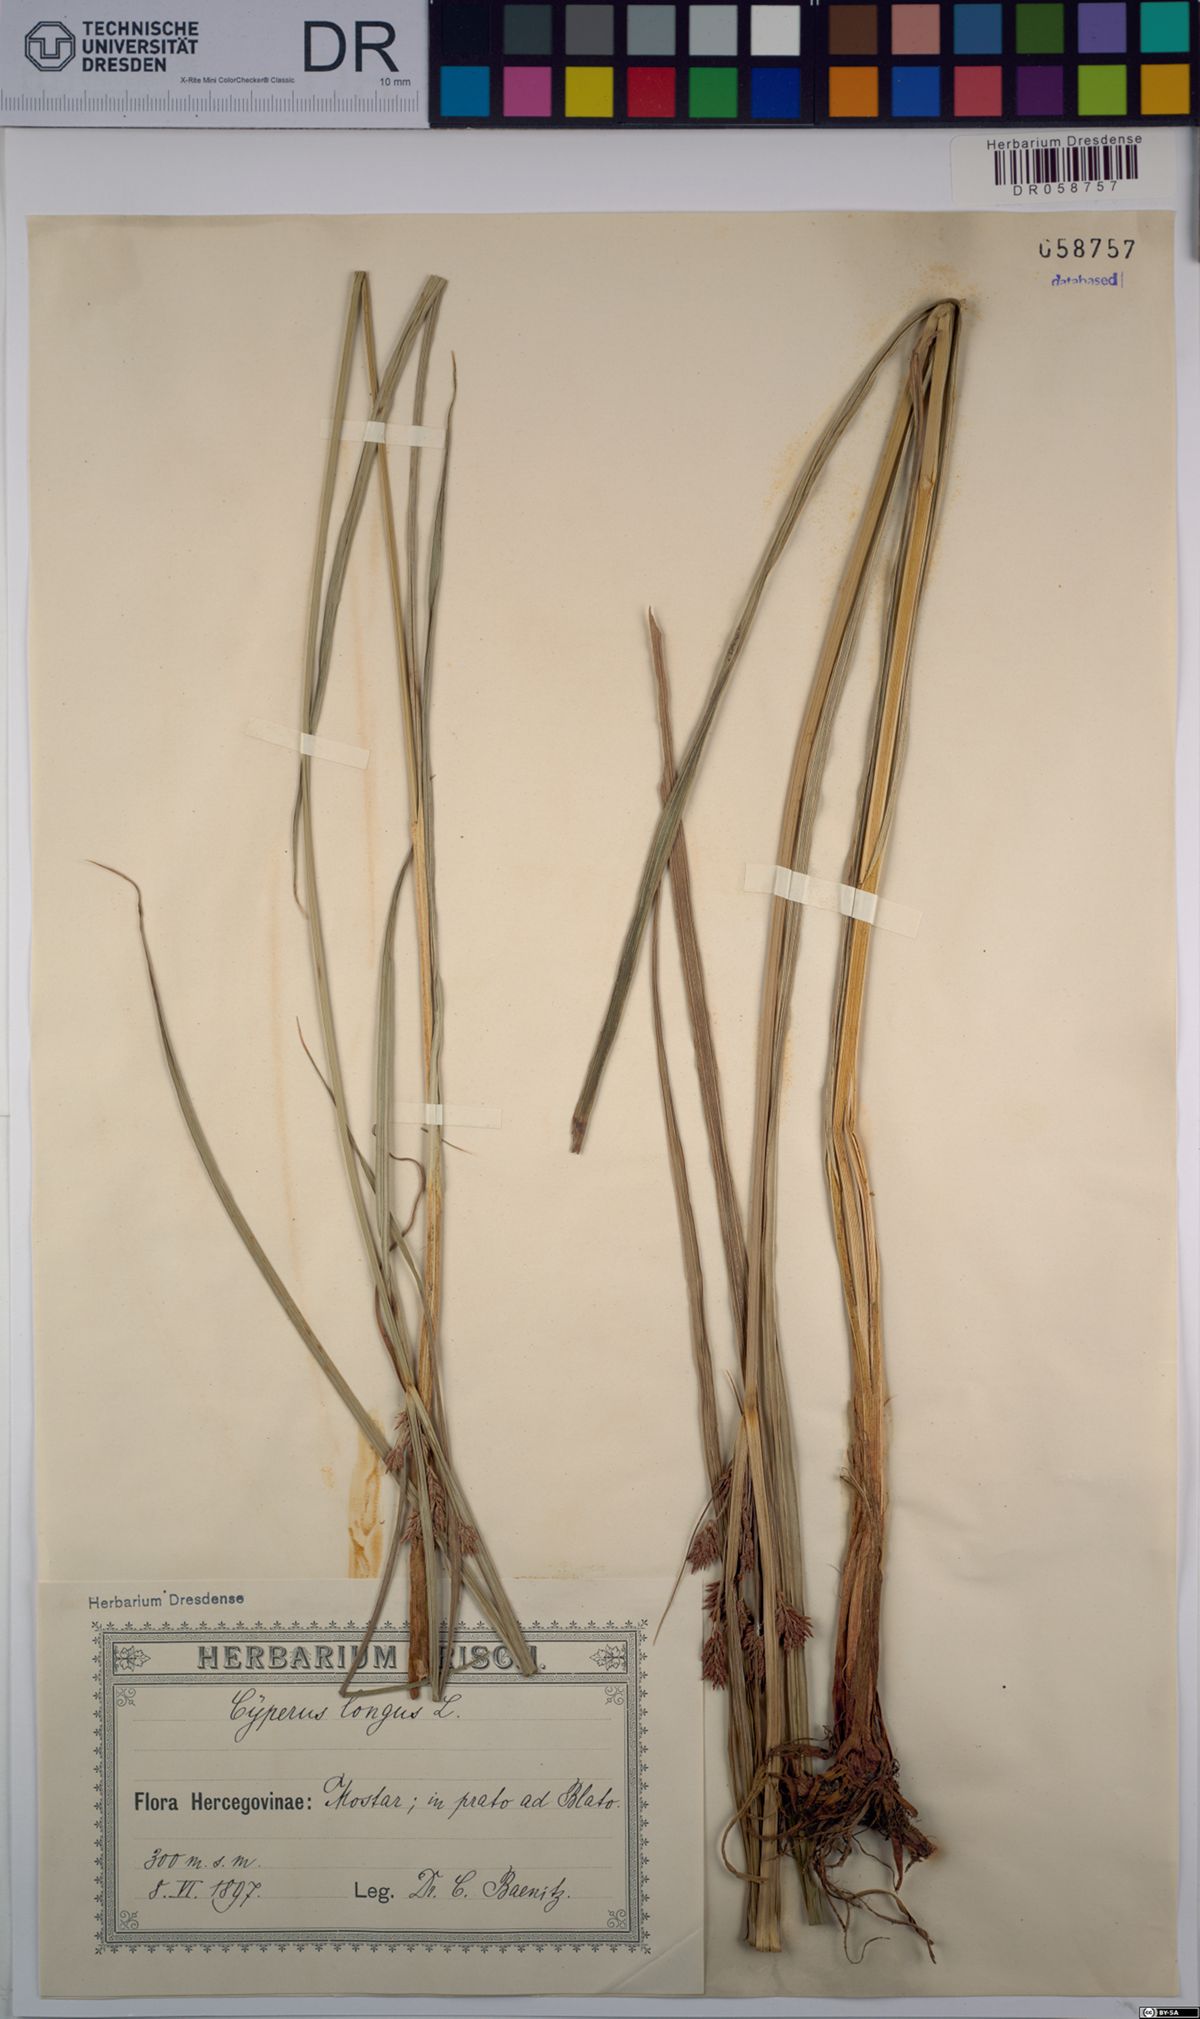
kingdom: Plantae
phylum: Tracheophyta
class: Liliopsida
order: Poales
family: Cyperaceae
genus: Cyperus
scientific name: Cyperus longus
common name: Galingale
